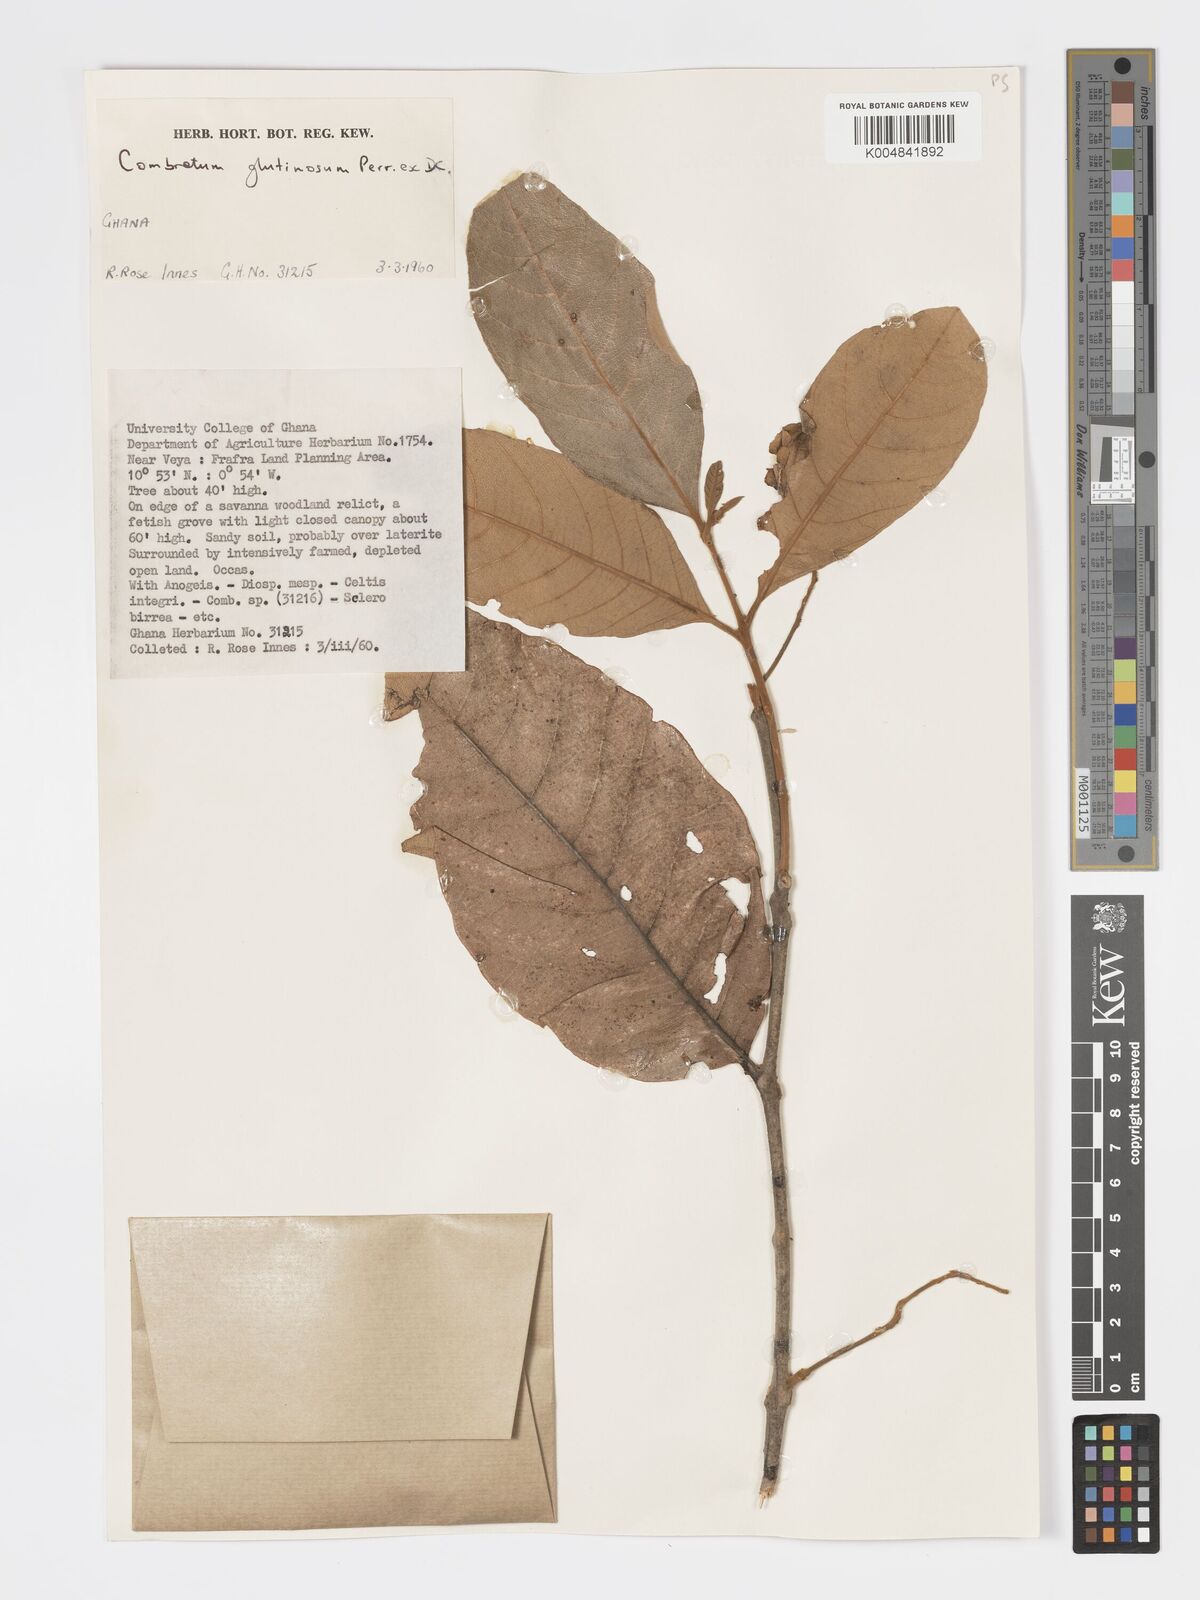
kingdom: Plantae
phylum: Tracheophyta
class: Magnoliopsida
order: Myrtales
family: Combretaceae
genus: Combretum
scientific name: Combretum
